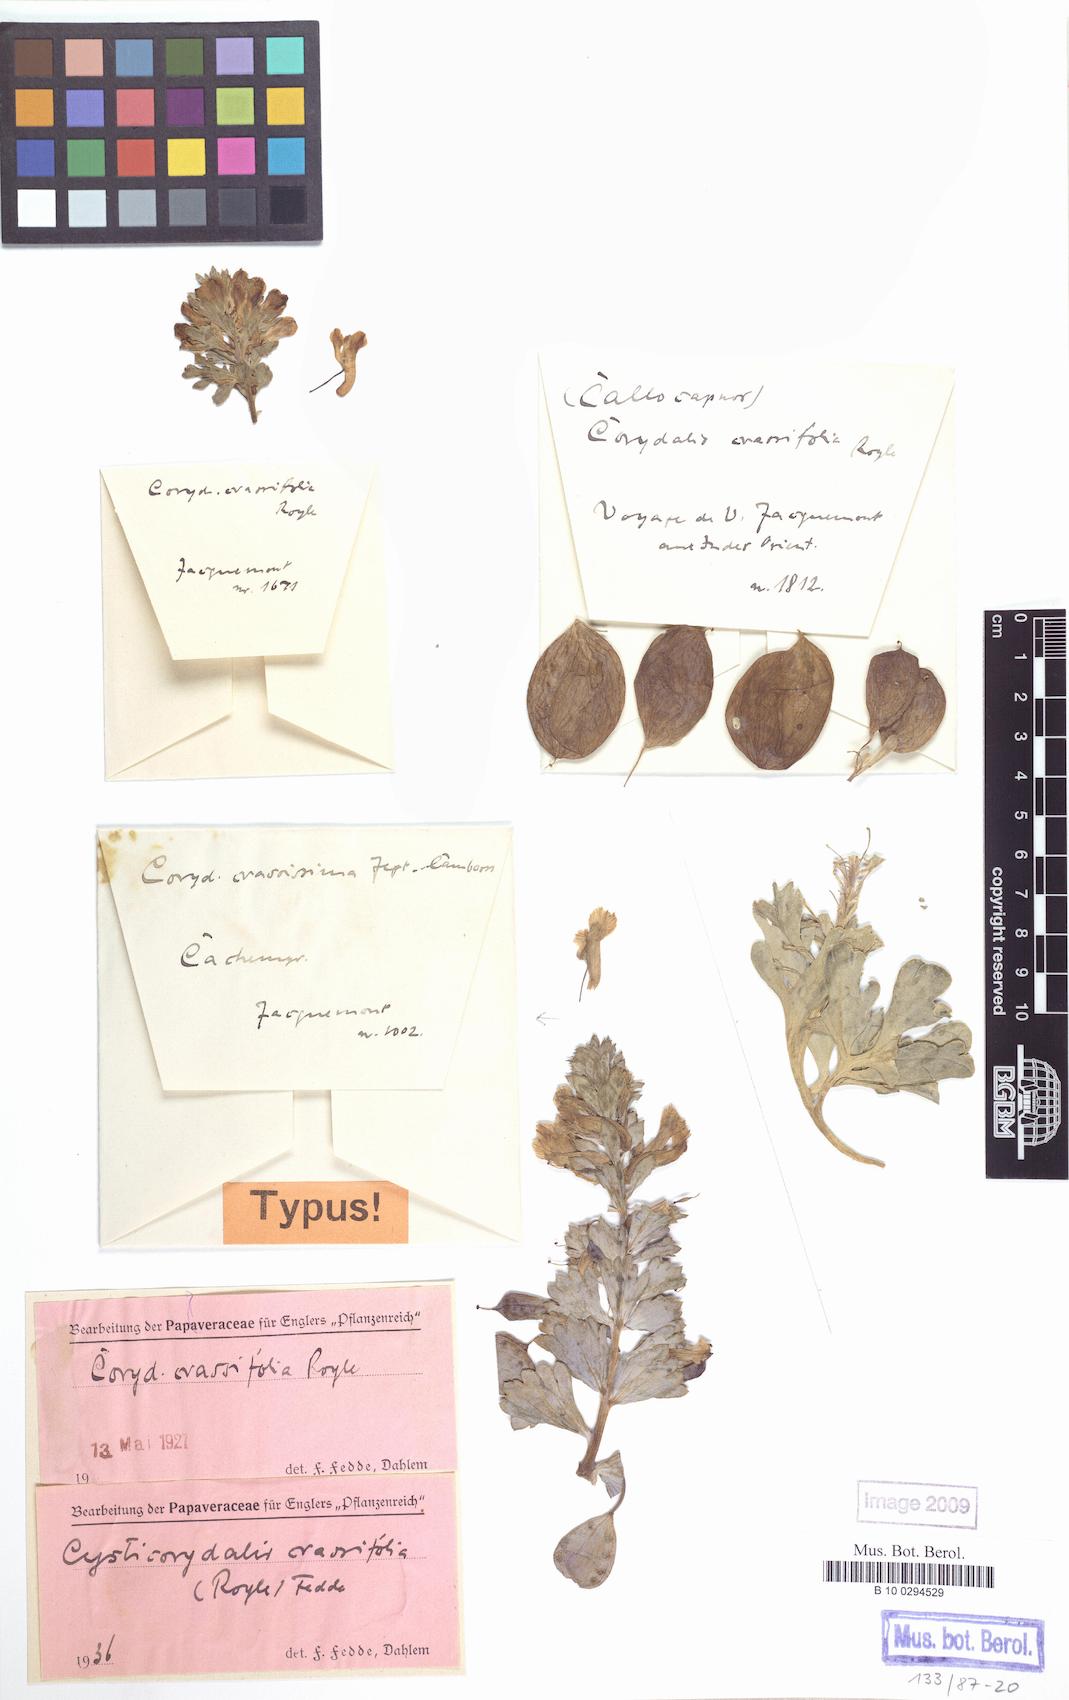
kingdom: Plantae
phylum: Tracheophyta
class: Magnoliopsida
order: Ranunculales
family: Papaveraceae
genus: Corydalis
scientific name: Corydalis crassifolia
